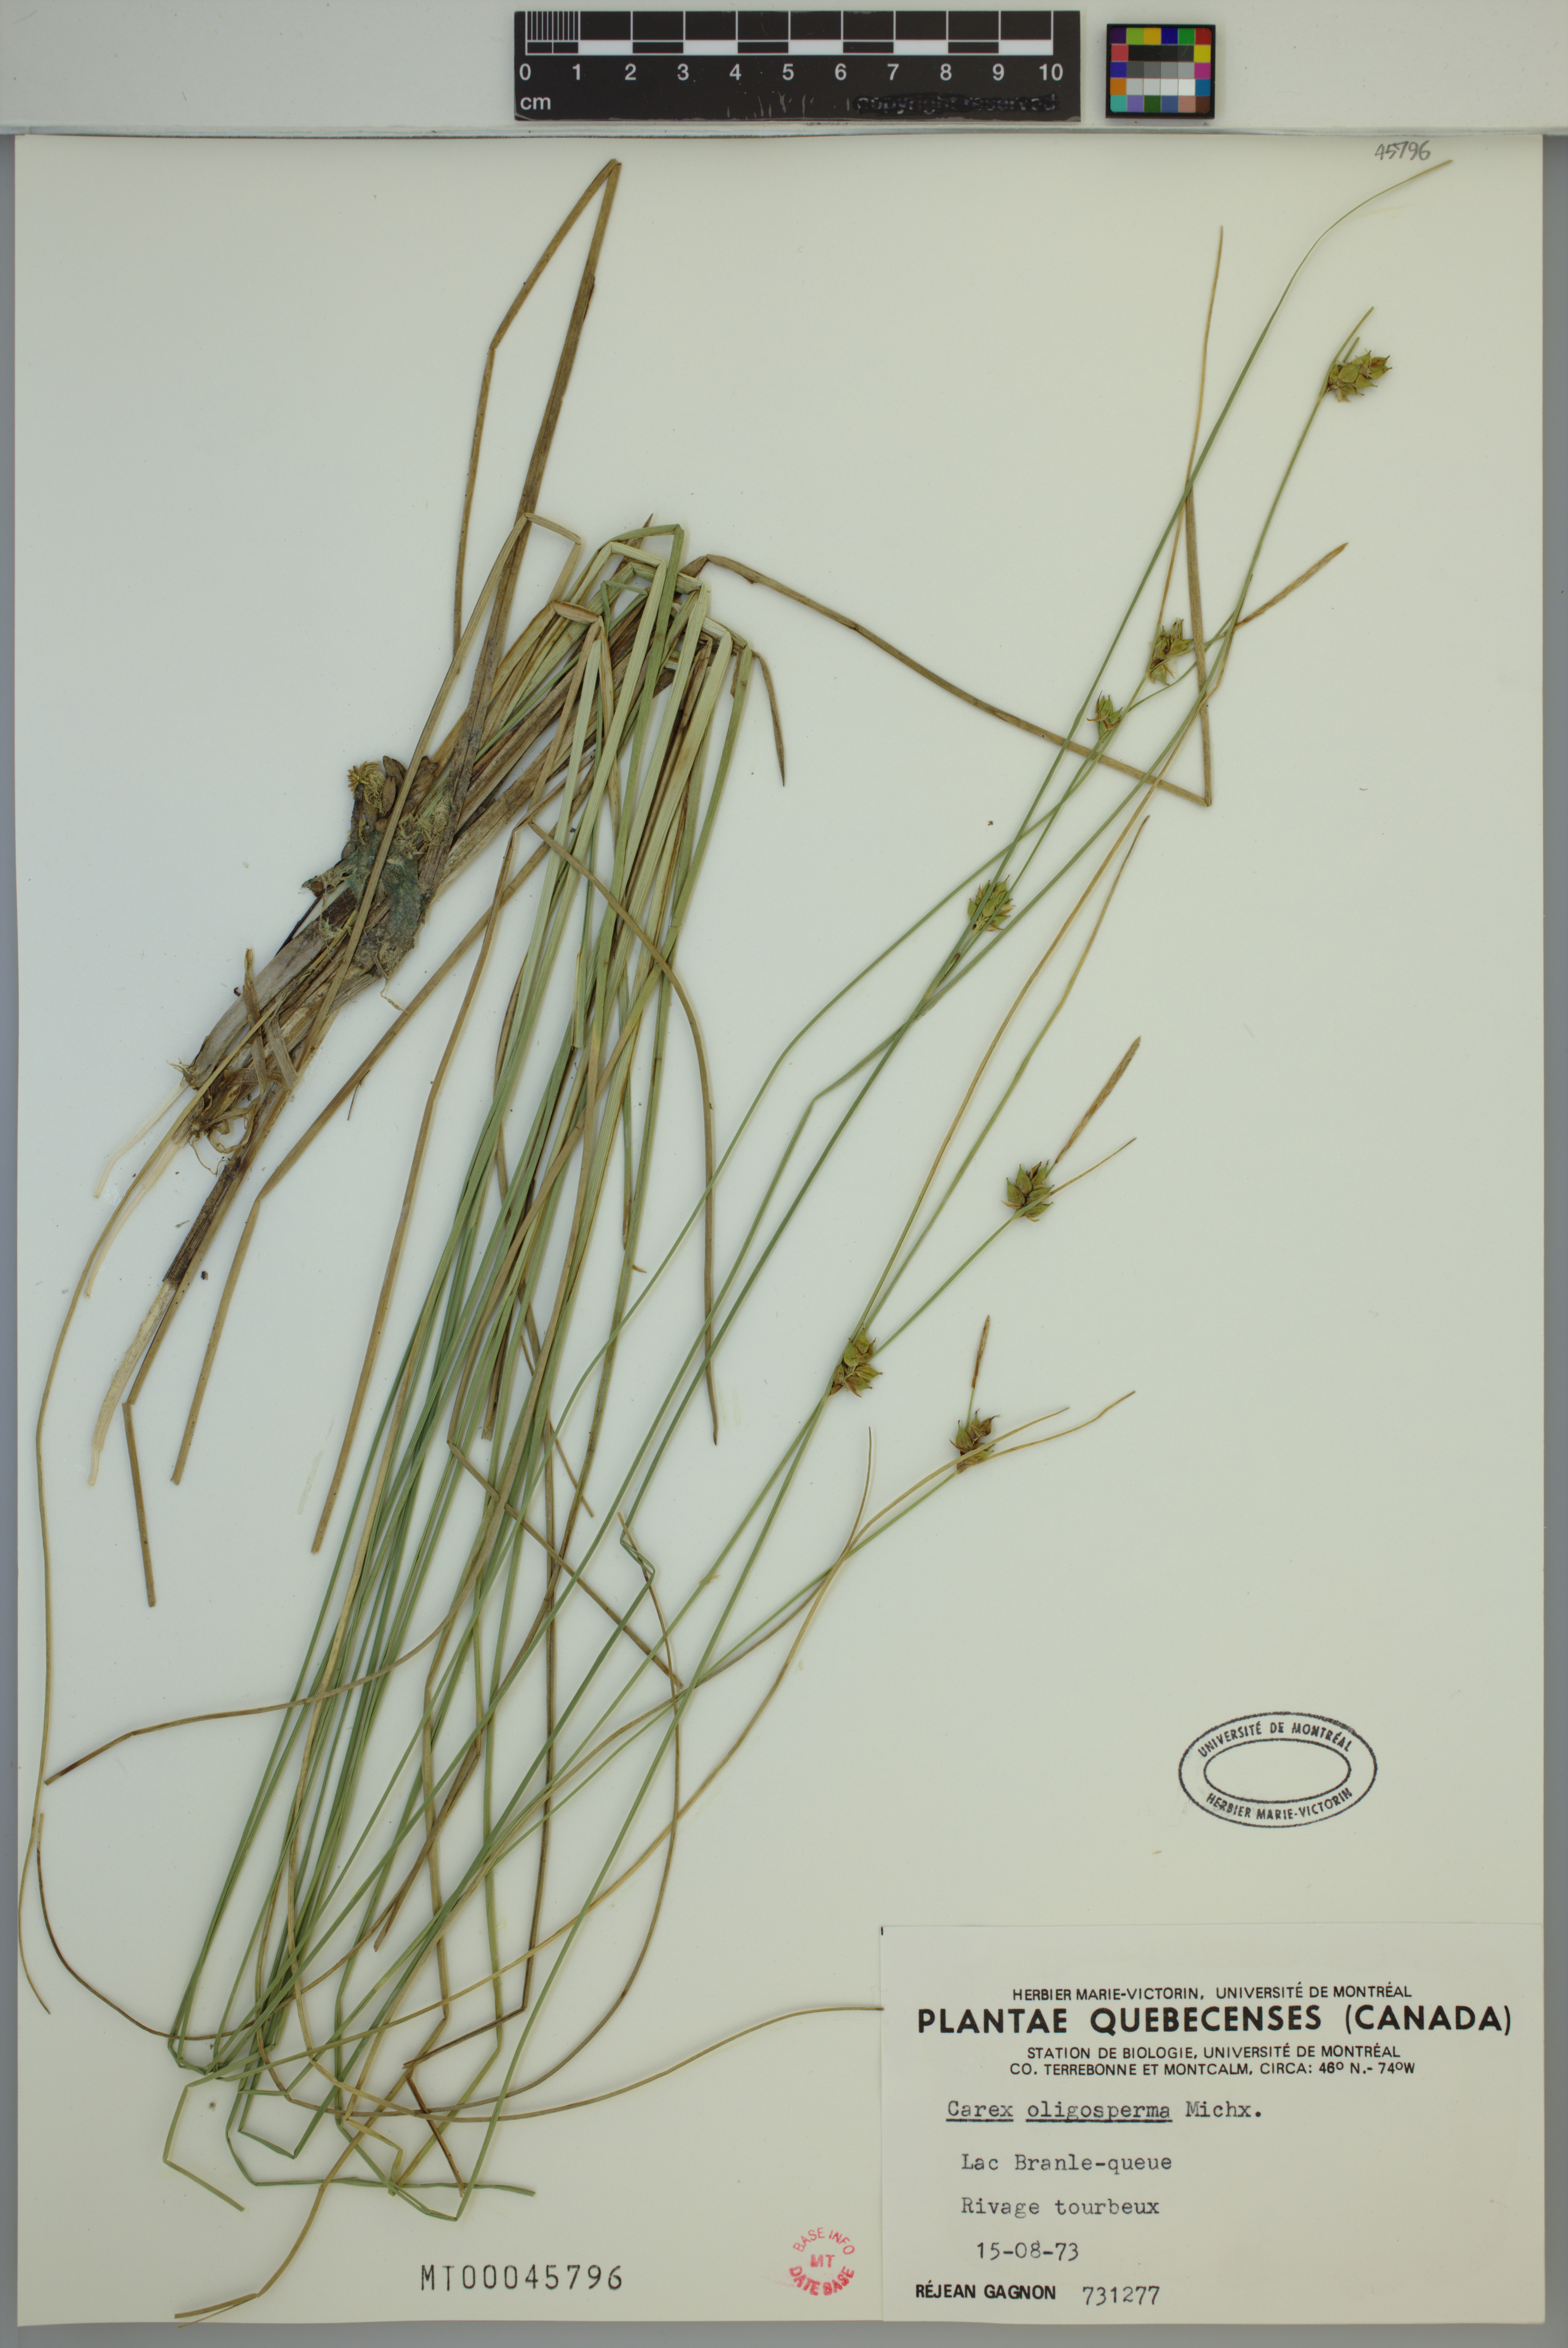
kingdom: Plantae
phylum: Tracheophyta
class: Liliopsida
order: Poales
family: Cyperaceae
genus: Carex
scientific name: Carex oligosperma
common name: Few-seed sedge
